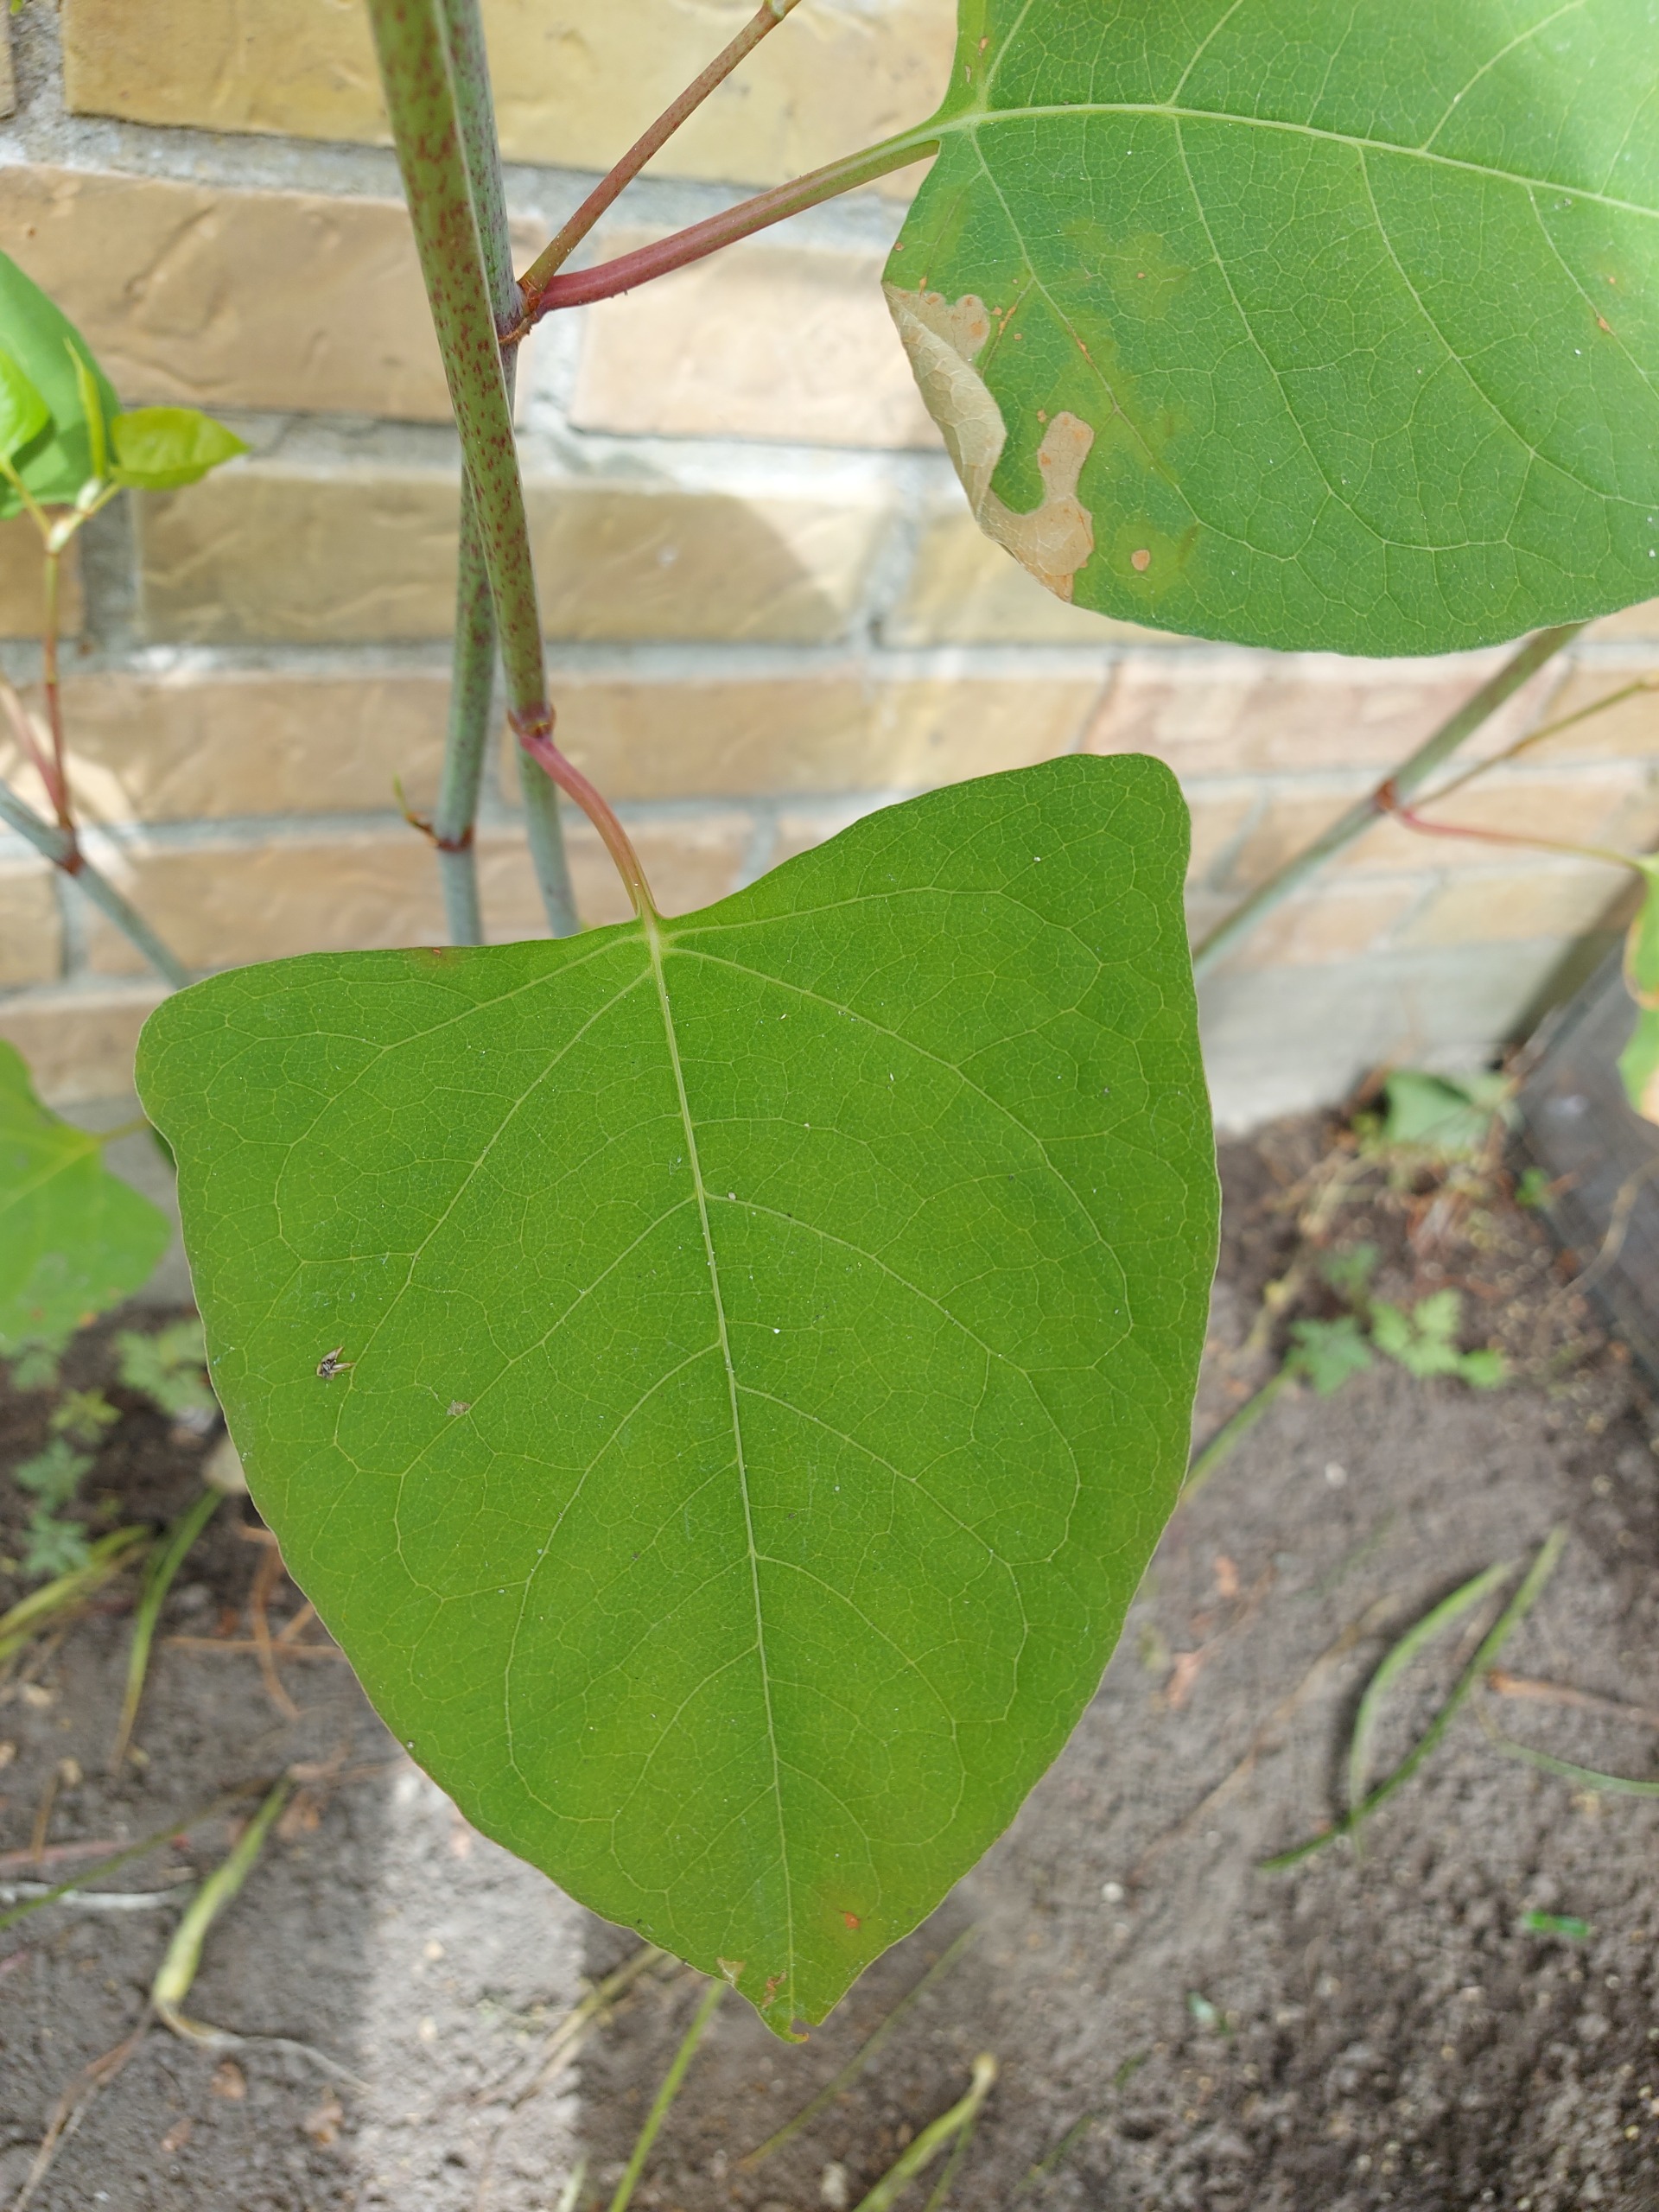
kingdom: Plantae
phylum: Tracheophyta
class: Magnoliopsida
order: Caryophyllales
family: Polygonaceae
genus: Reynoutria
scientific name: Reynoutria japonica
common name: Japan-pileurt
